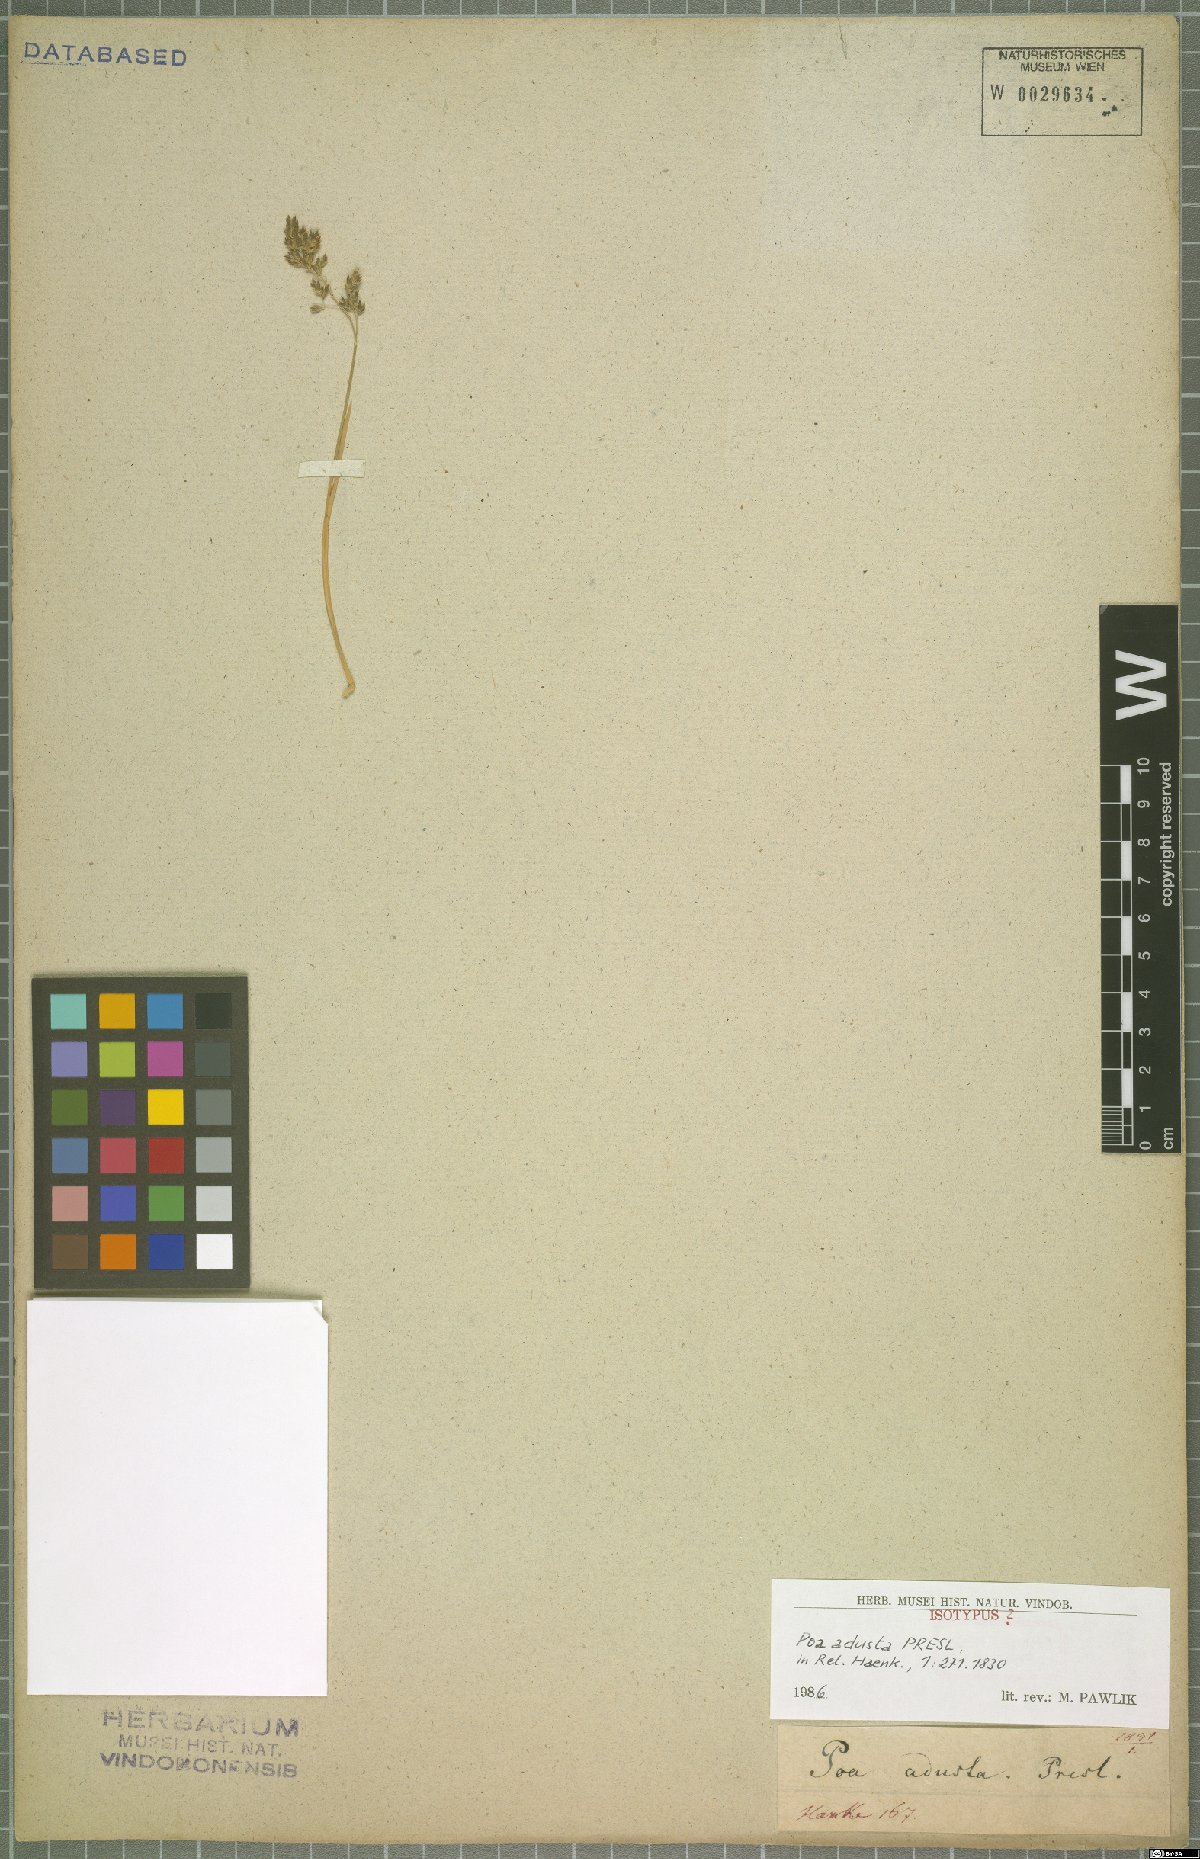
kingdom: Plantae
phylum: Tracheophyta
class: Liliopsida
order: Poales
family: Poaceae
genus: Poa
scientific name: Poa adusta
